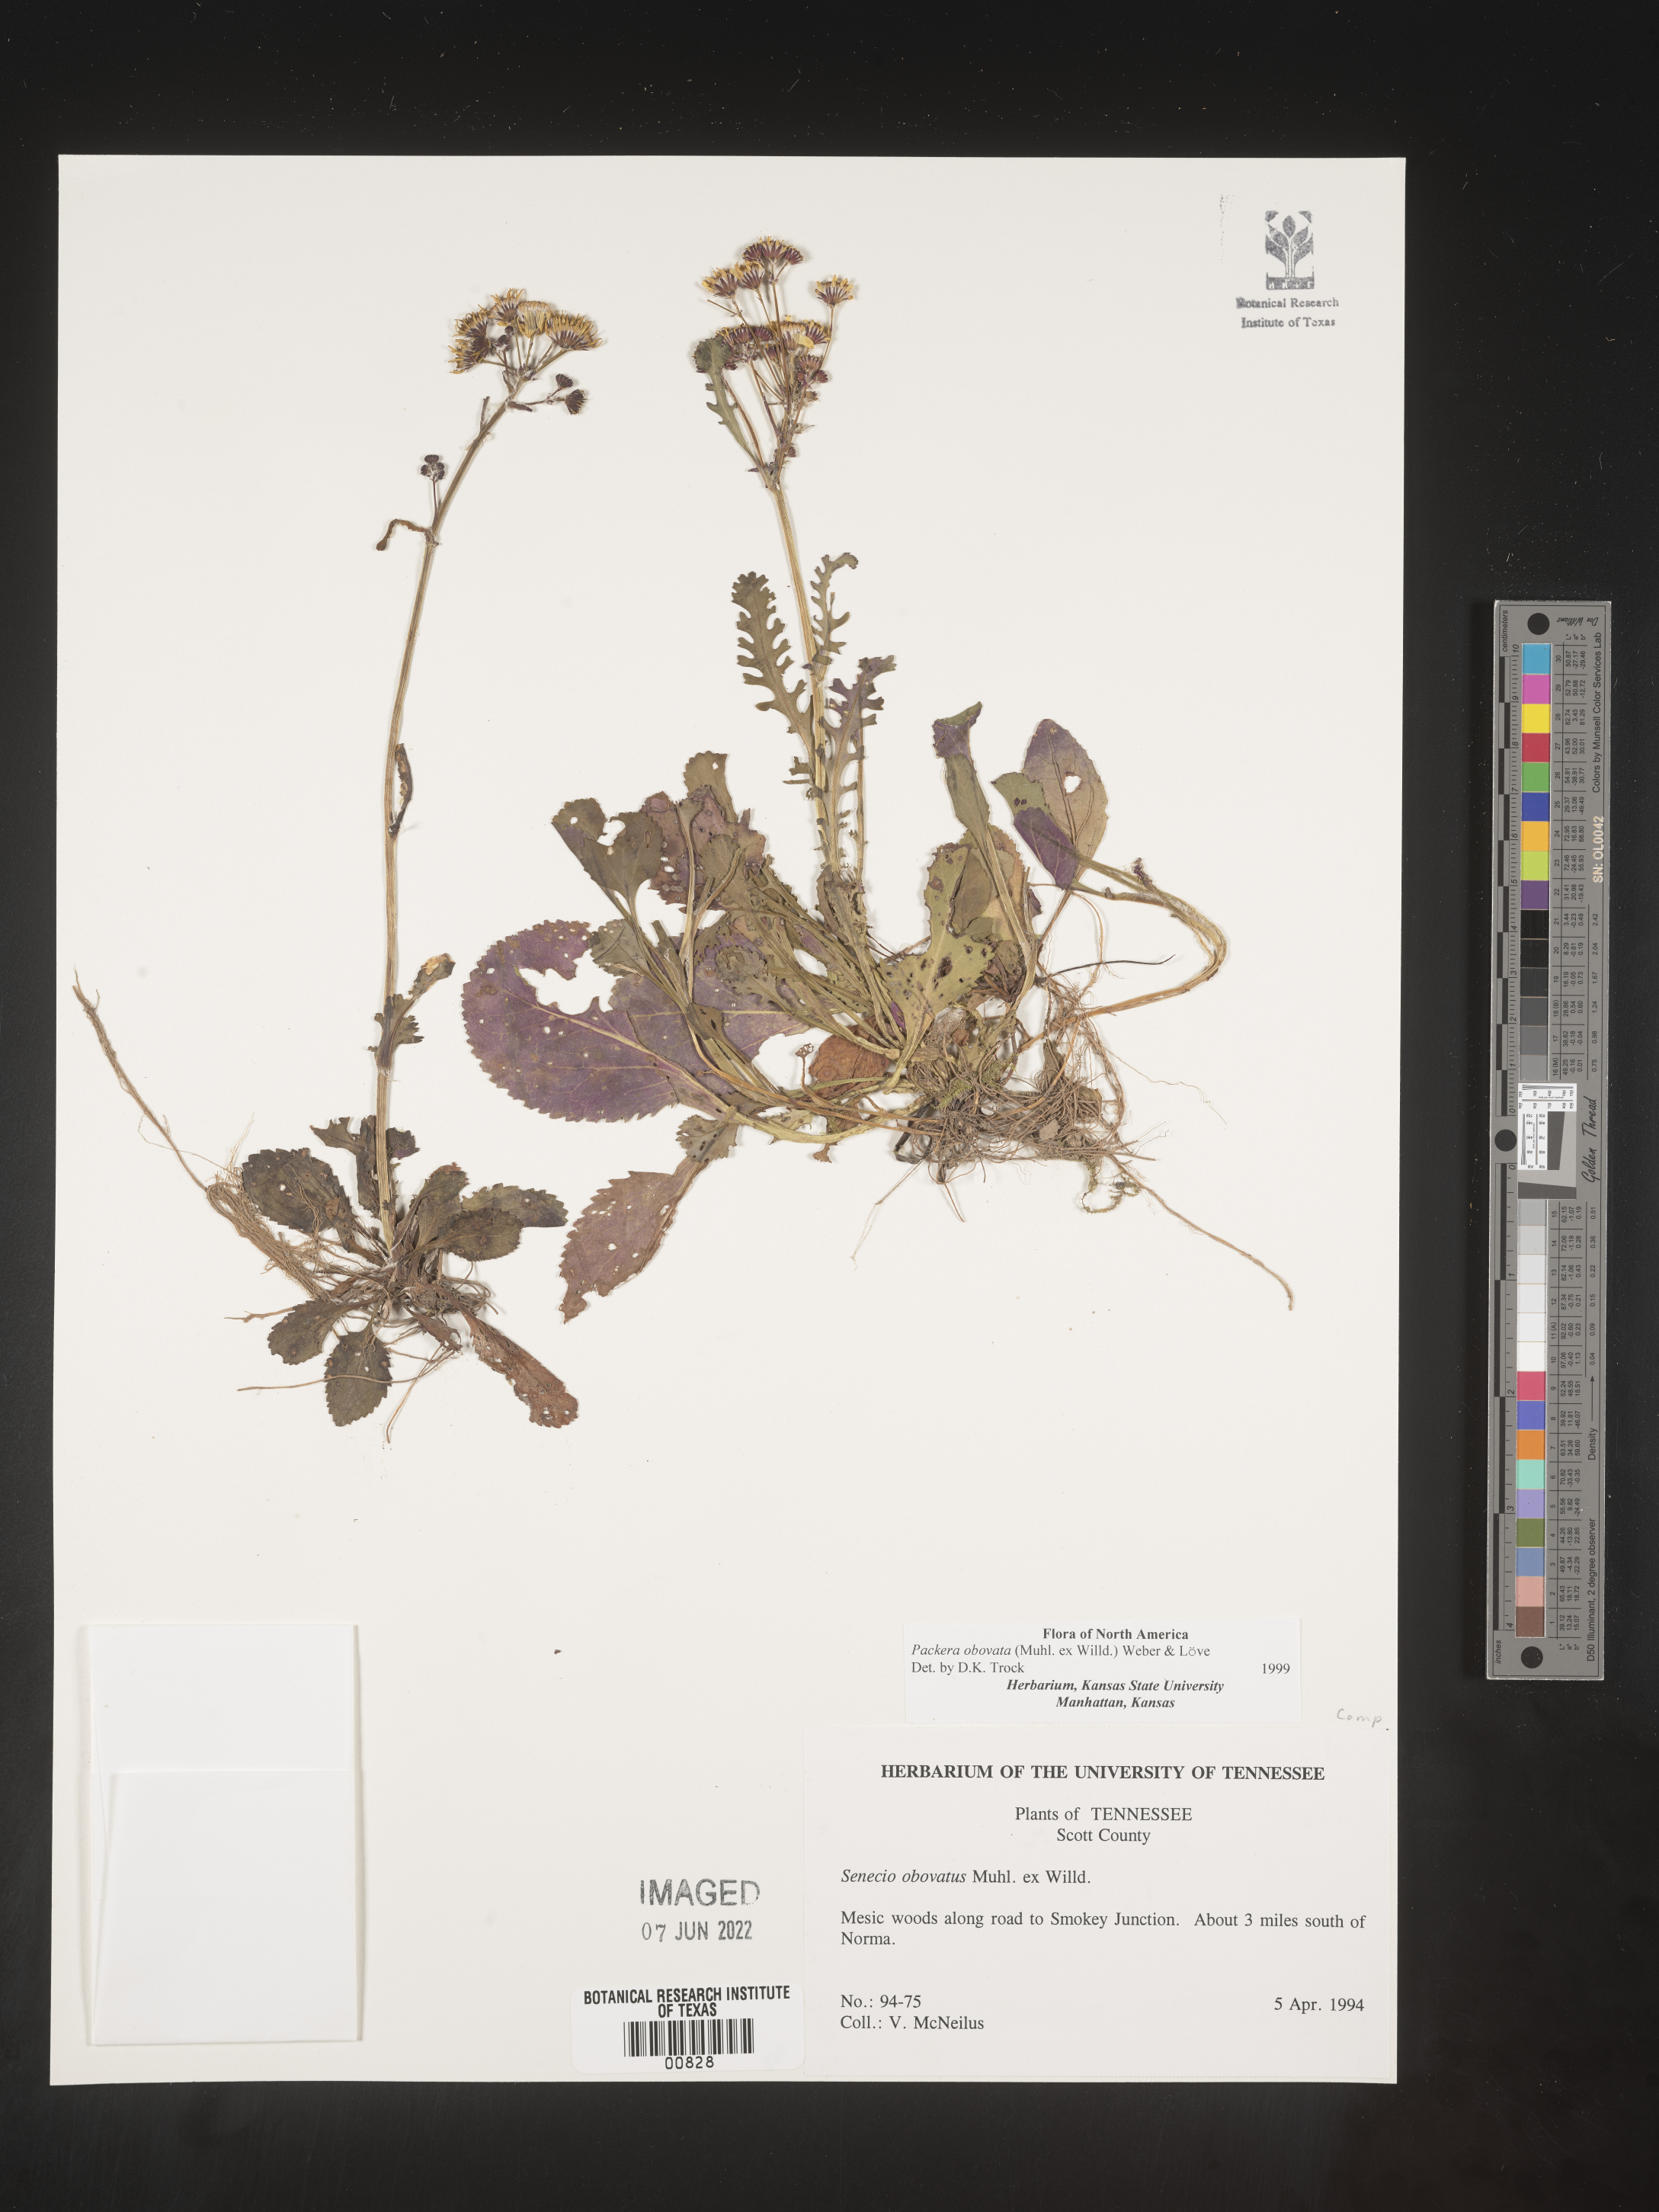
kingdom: Plantae
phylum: Tracheophyta
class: Magnoliopsida
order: Asterales
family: Asteraceae
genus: Packera
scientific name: Packera obovata
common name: Round-leaf ragwort
